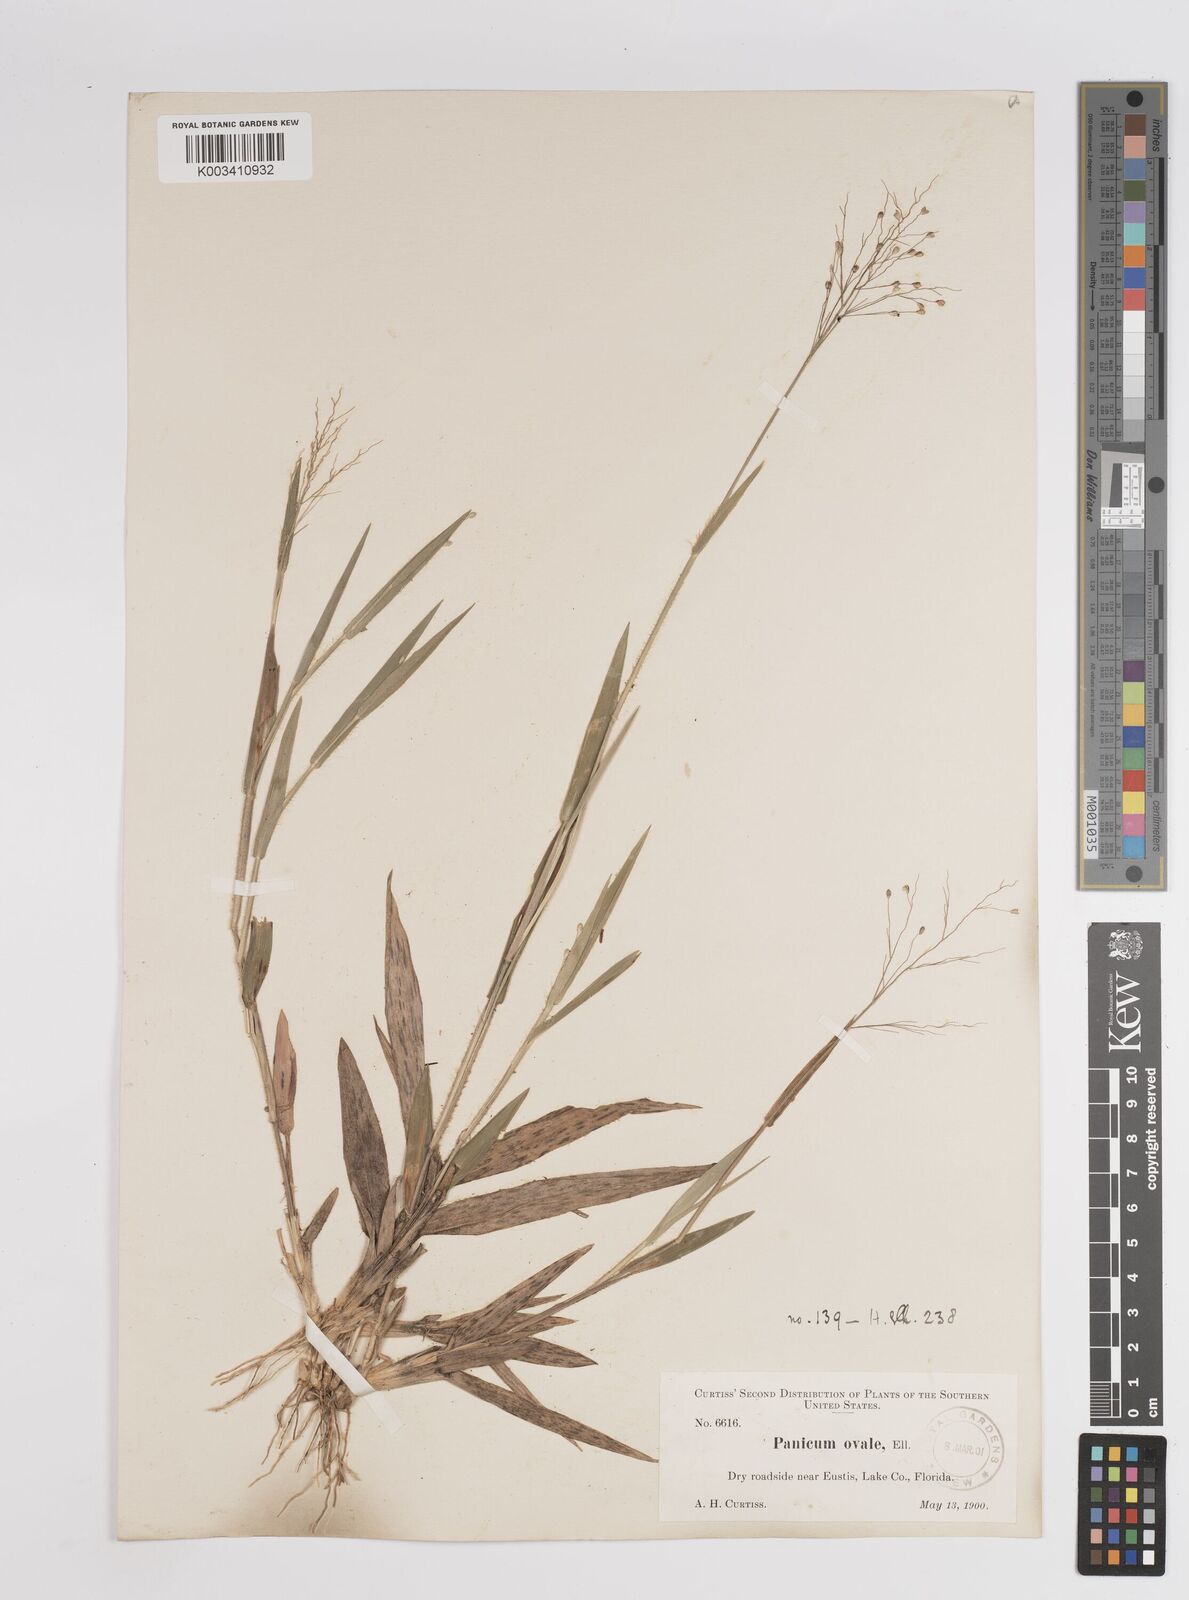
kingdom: Plantae
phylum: Tracheophyta
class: Liliopsida
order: Poales
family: Poaceae
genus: Dichanthelium
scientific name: Dichanthelium ovale
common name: Stiff-leaved panicgrass
